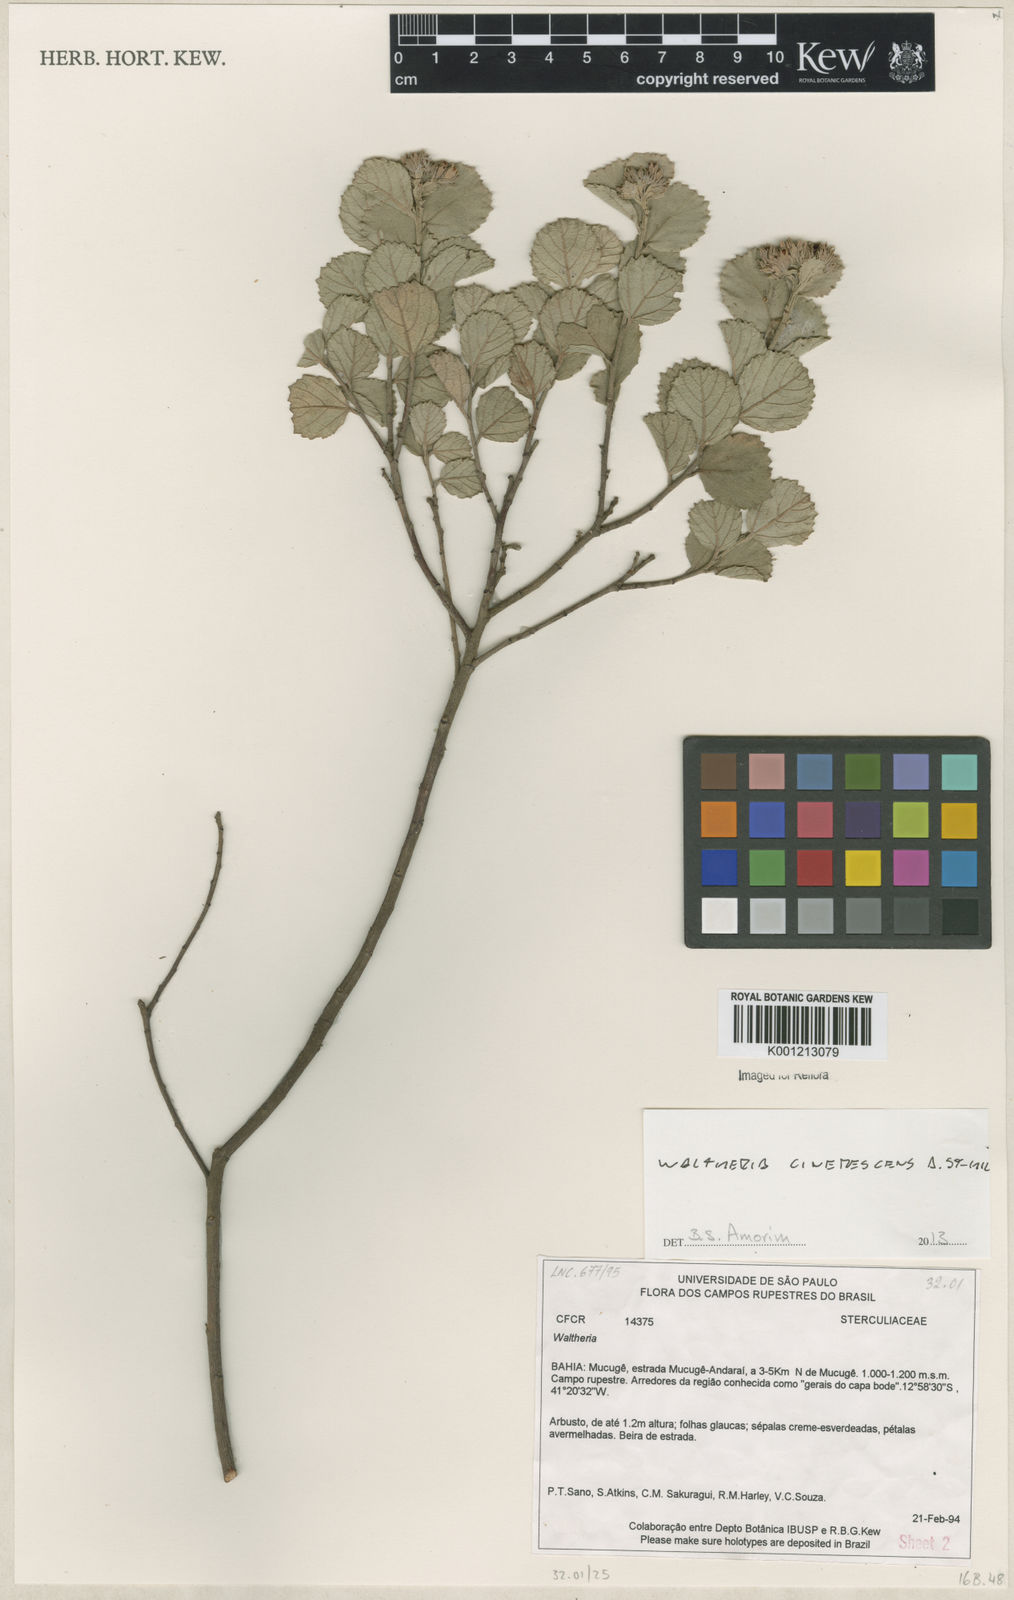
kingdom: Plantae
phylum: Tracheophyta
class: Magnoliopsida
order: Malvales
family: Malvaceae
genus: Waltheria
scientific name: Waltheria cinerescens
